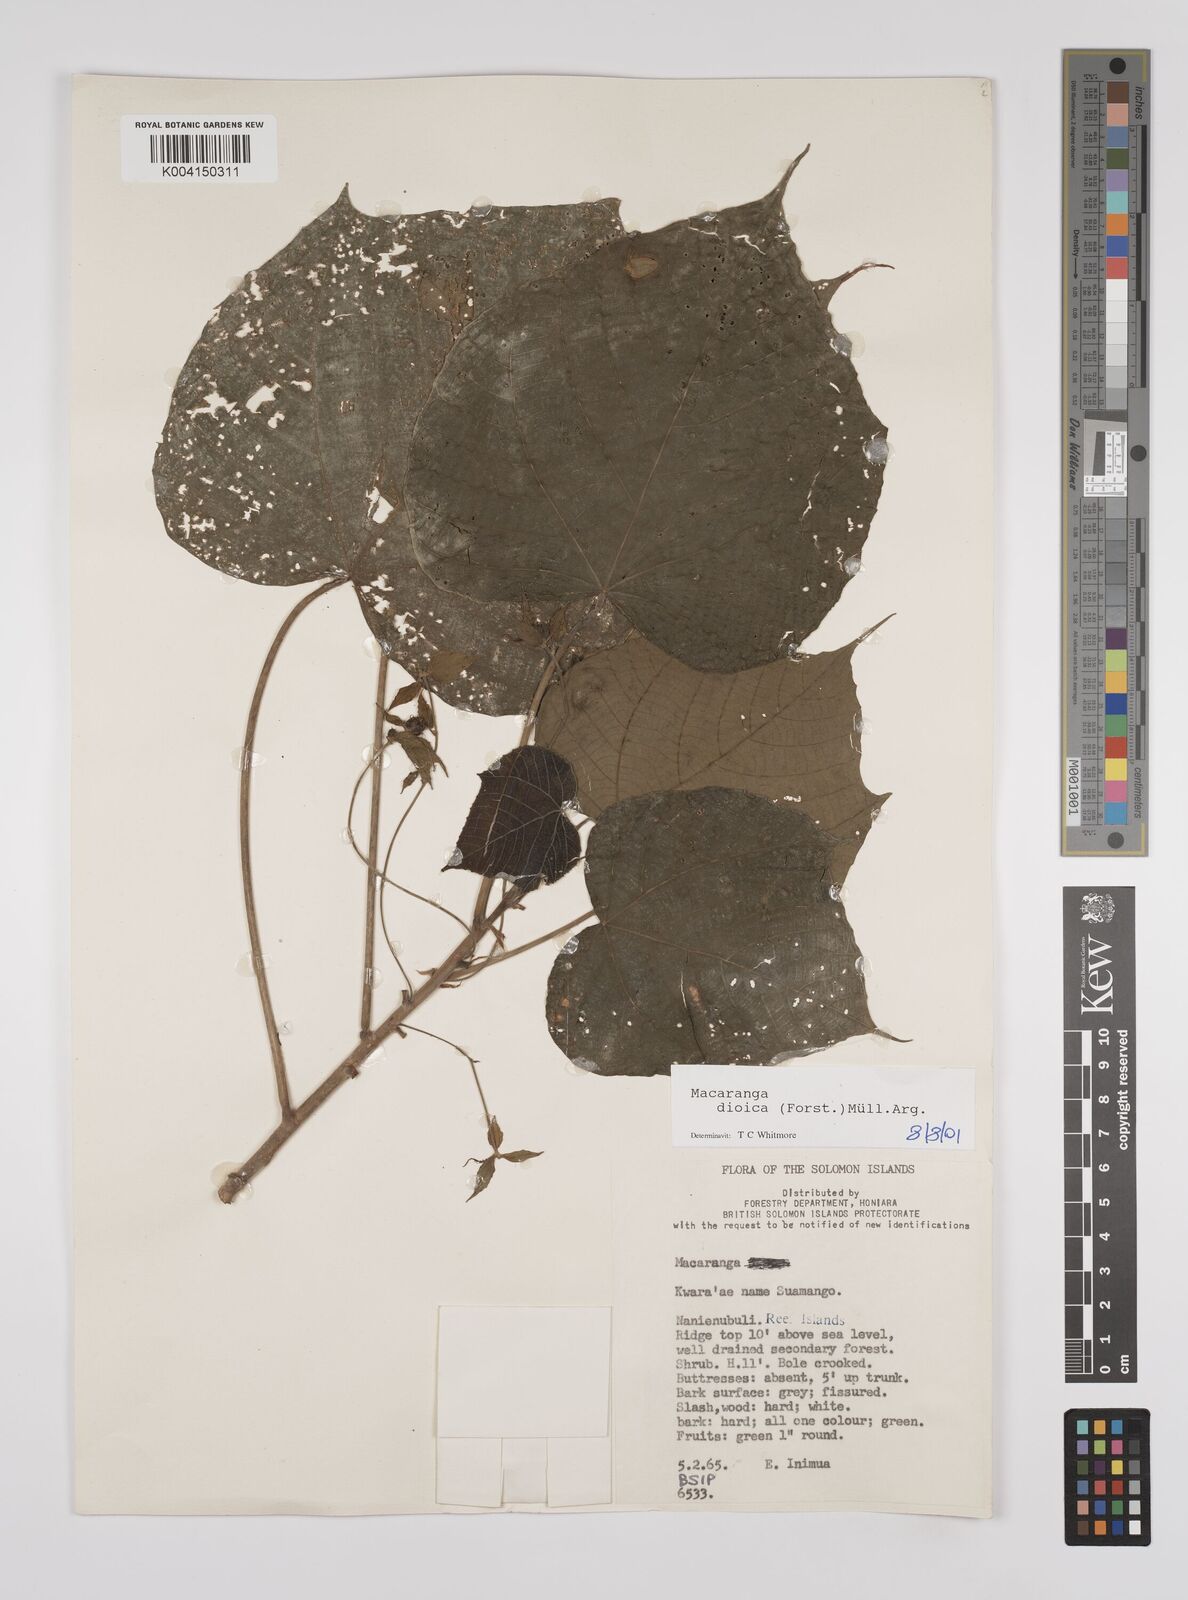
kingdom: Plantae
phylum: Tracheophyta
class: Magnoliopsida
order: Malpighiales
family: Euphorbiaceae
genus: Macaranga
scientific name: Macaranga dioica
